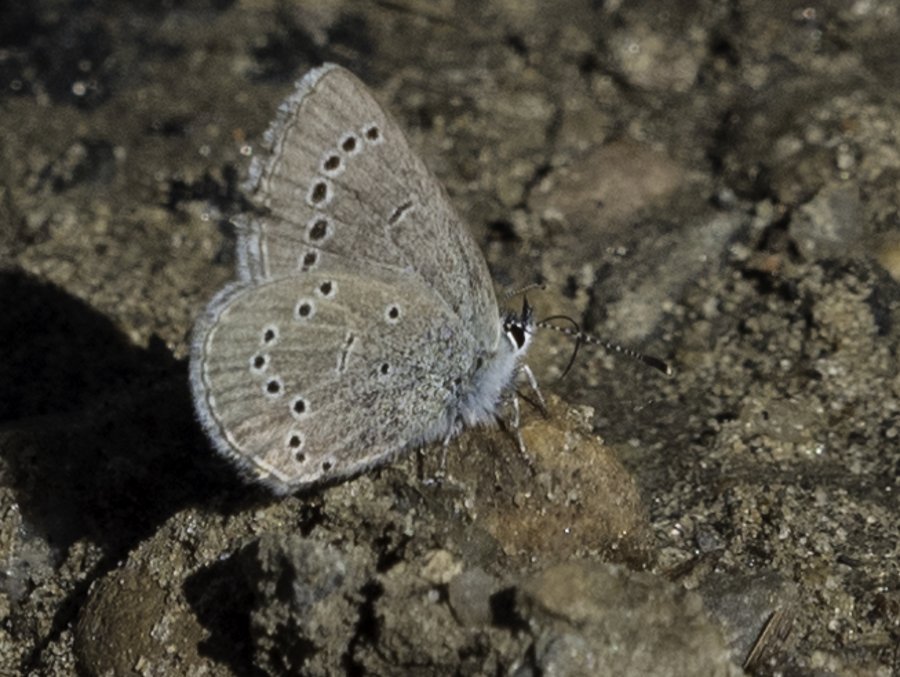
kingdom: Animalia
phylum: Arthropoda
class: Insecta
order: Lepidoptera
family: Lycaenidae
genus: Glaucopsyche
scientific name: Glaucopsyche lygdamus
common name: Silvery Blue
